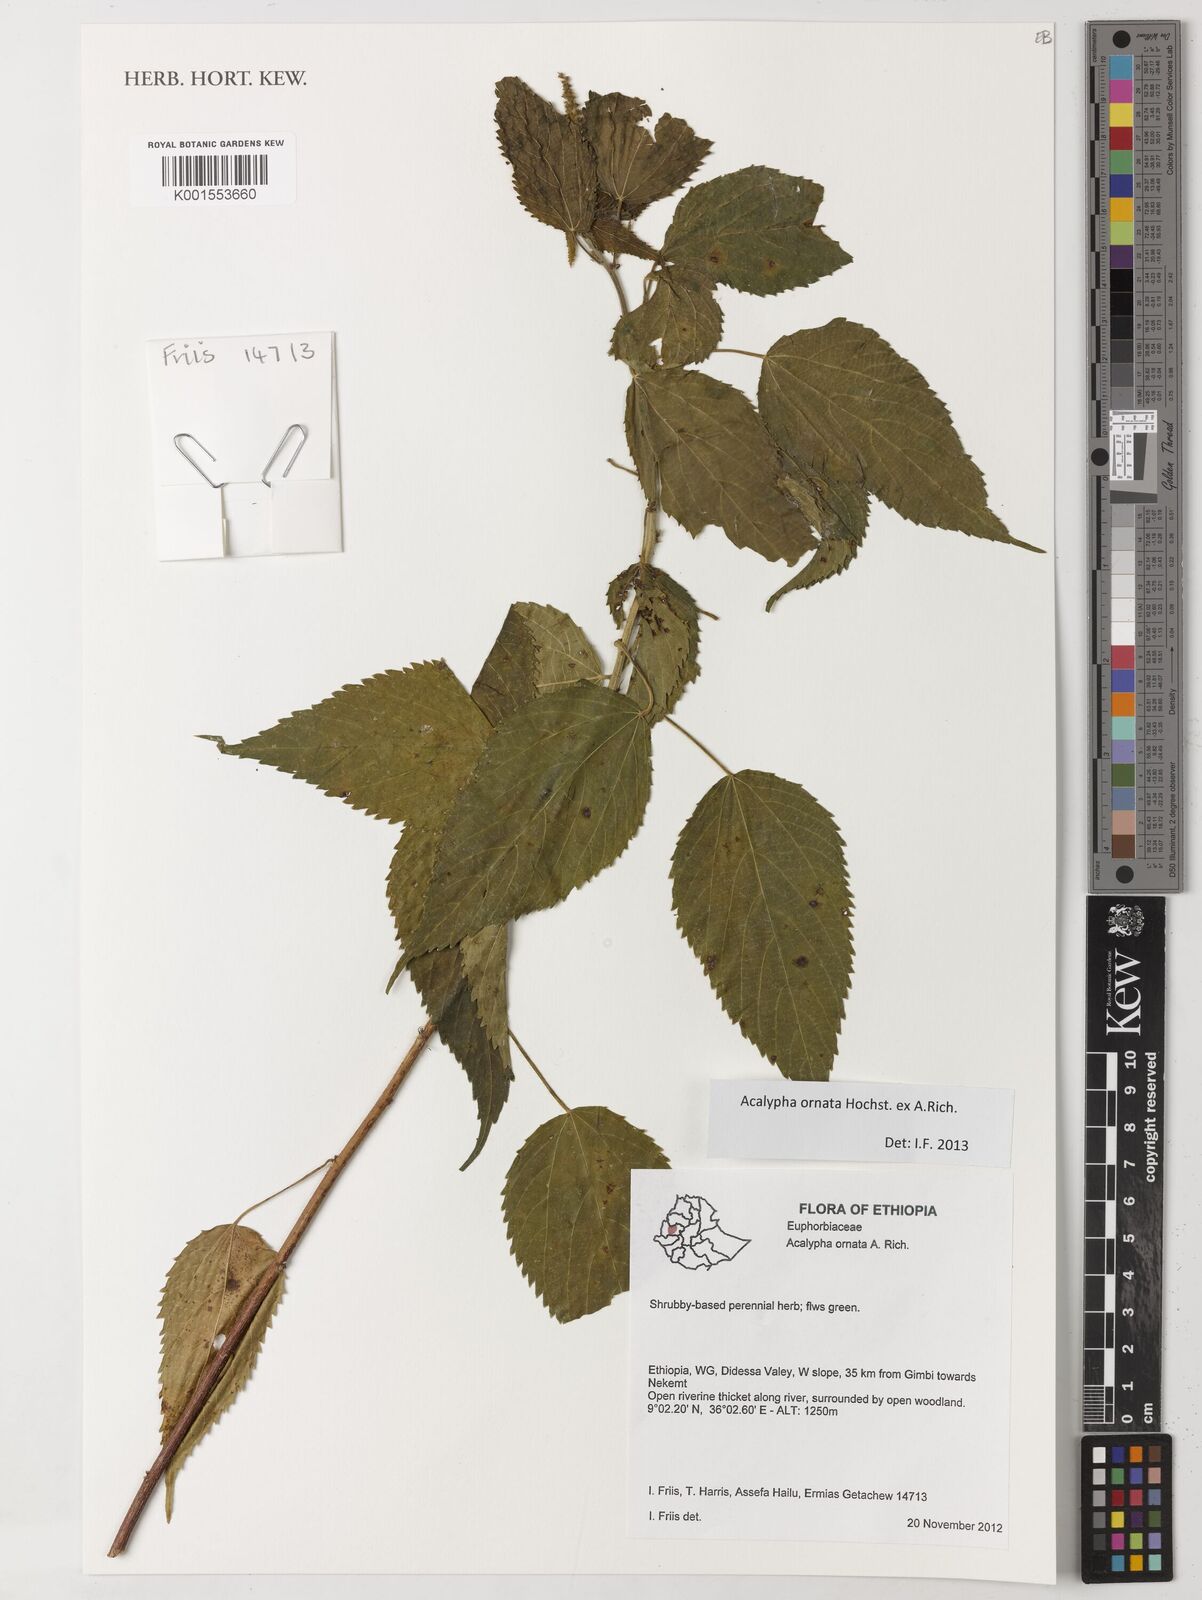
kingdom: Plantae
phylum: Tracheophyta
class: Magnoliopsida
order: Malpighiales
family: Euphorbiaceae
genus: Acalypha
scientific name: Acalypha ornata
